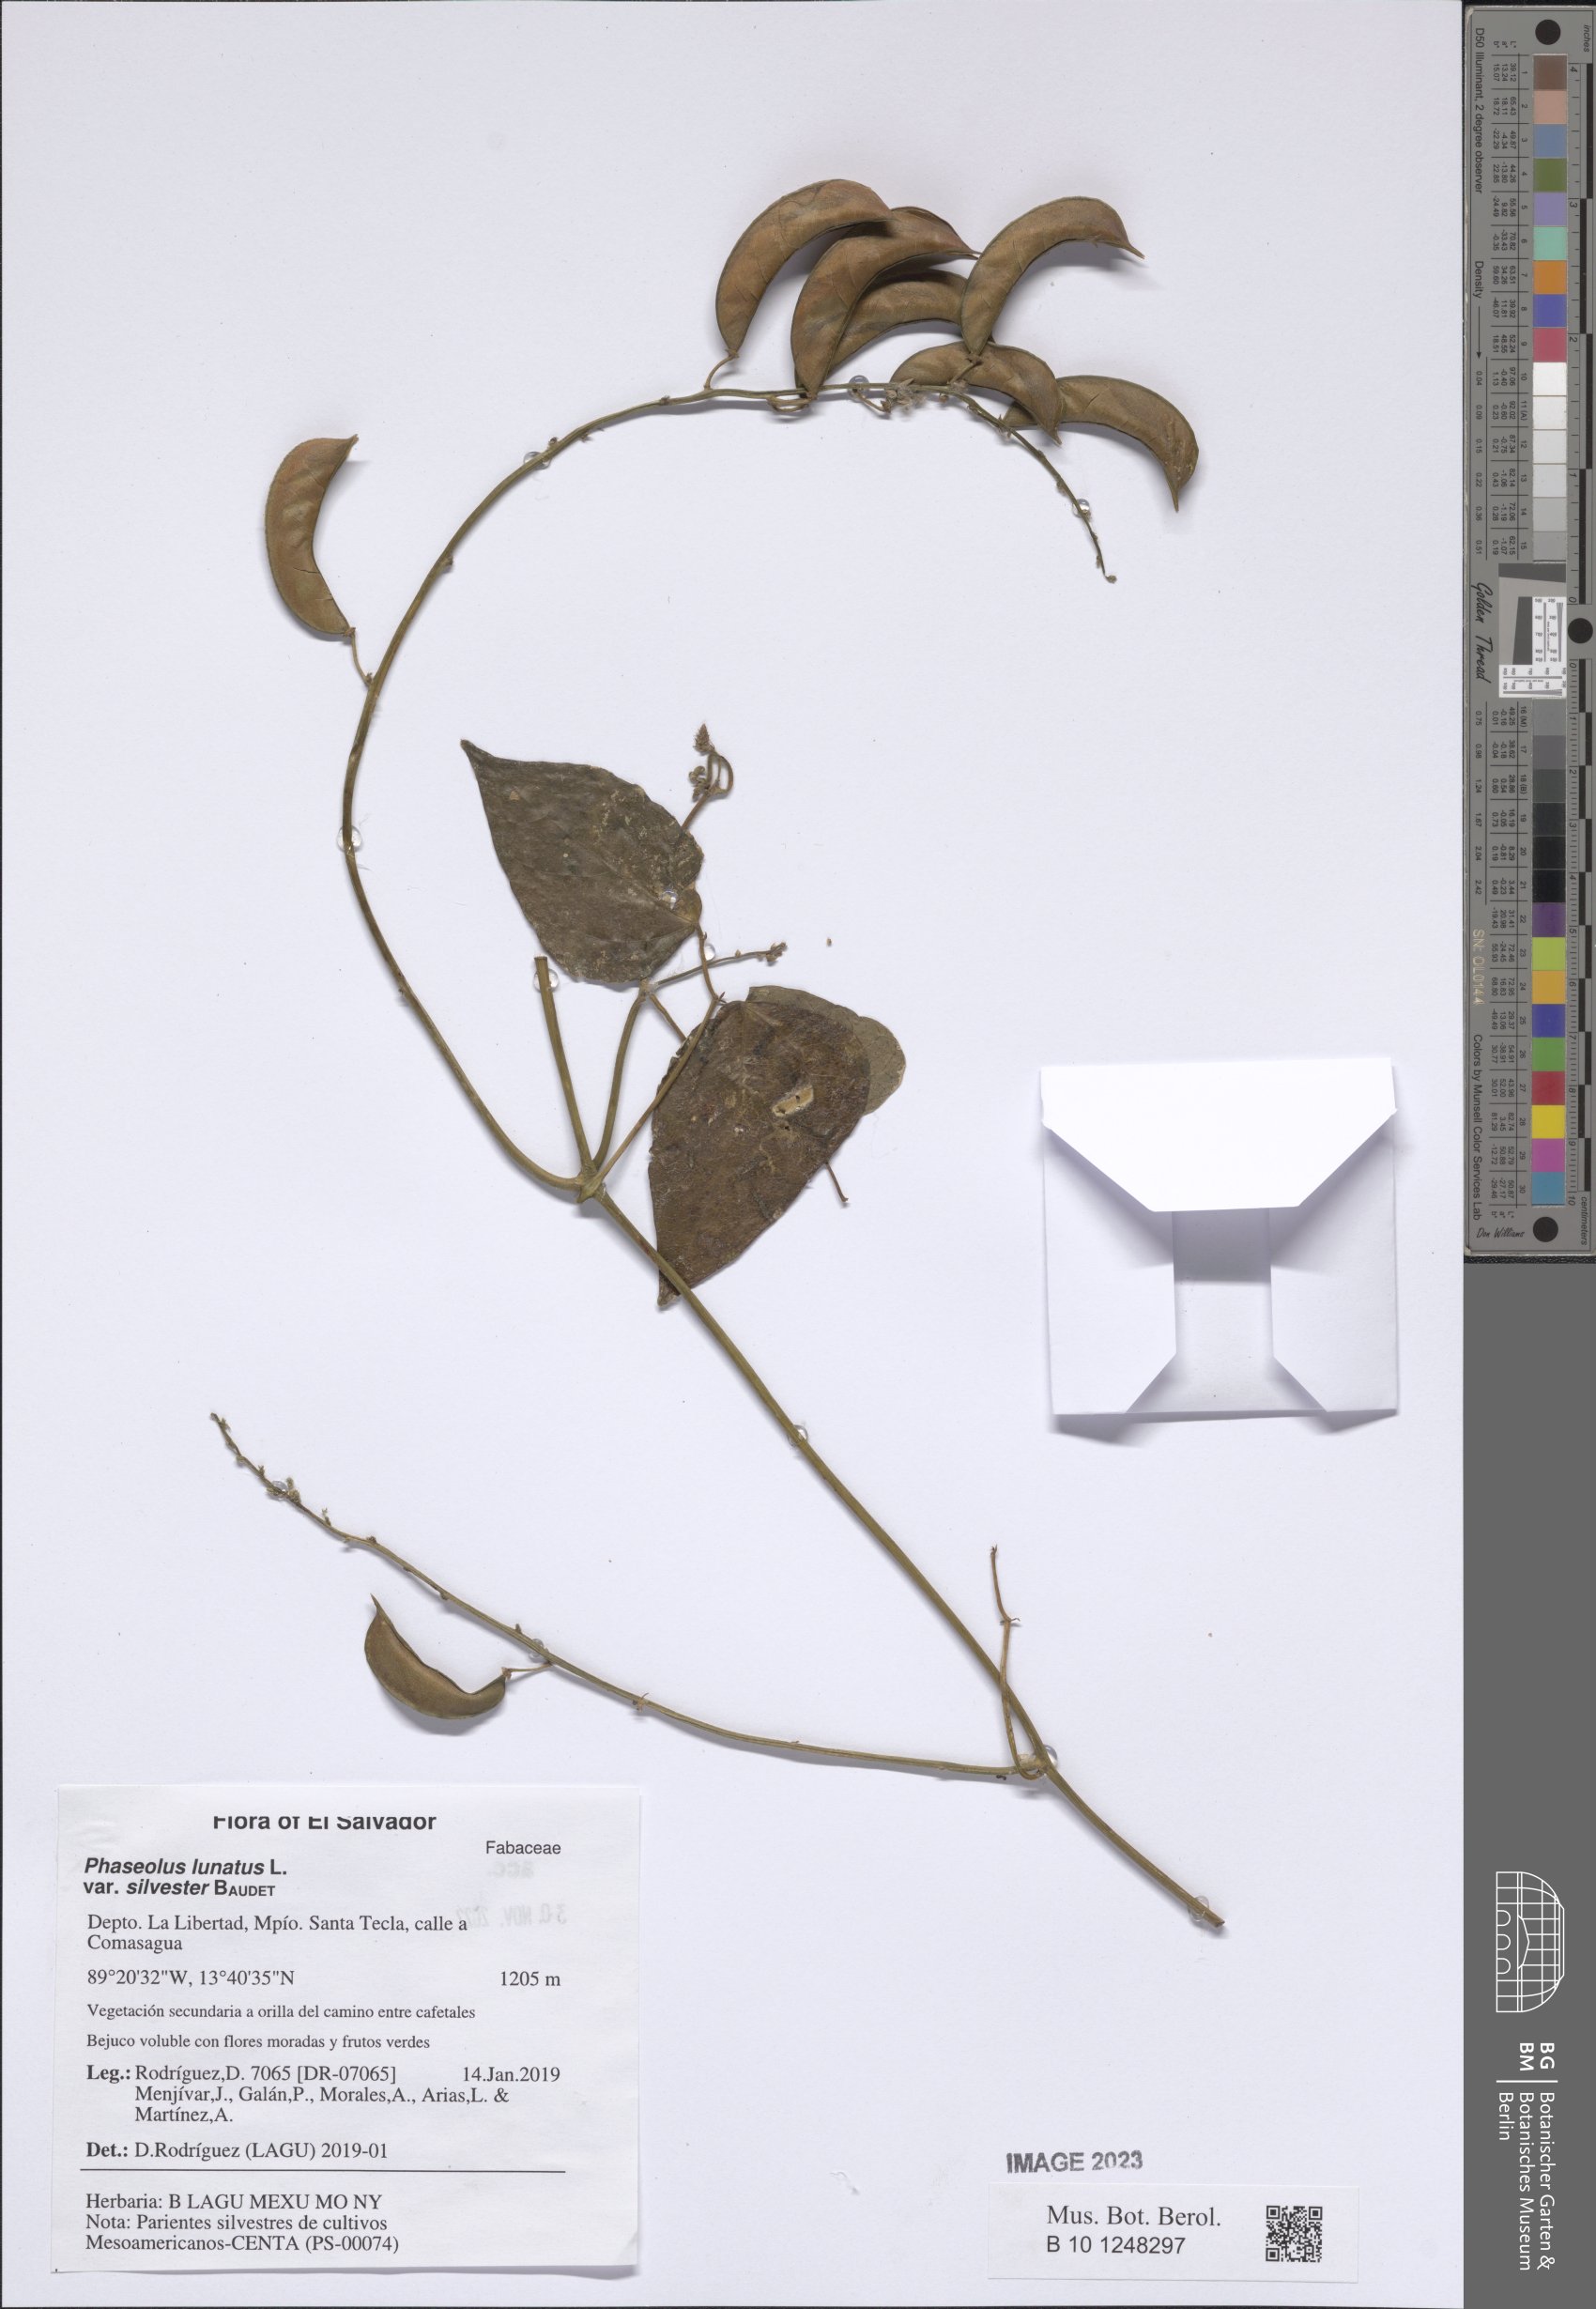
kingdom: Plantae
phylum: Tracheophyta
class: Magnoliopsida
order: Fabales
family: Fabaceae
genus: Phaseolus
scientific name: Phaseolus lunatus
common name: Sieva bean
